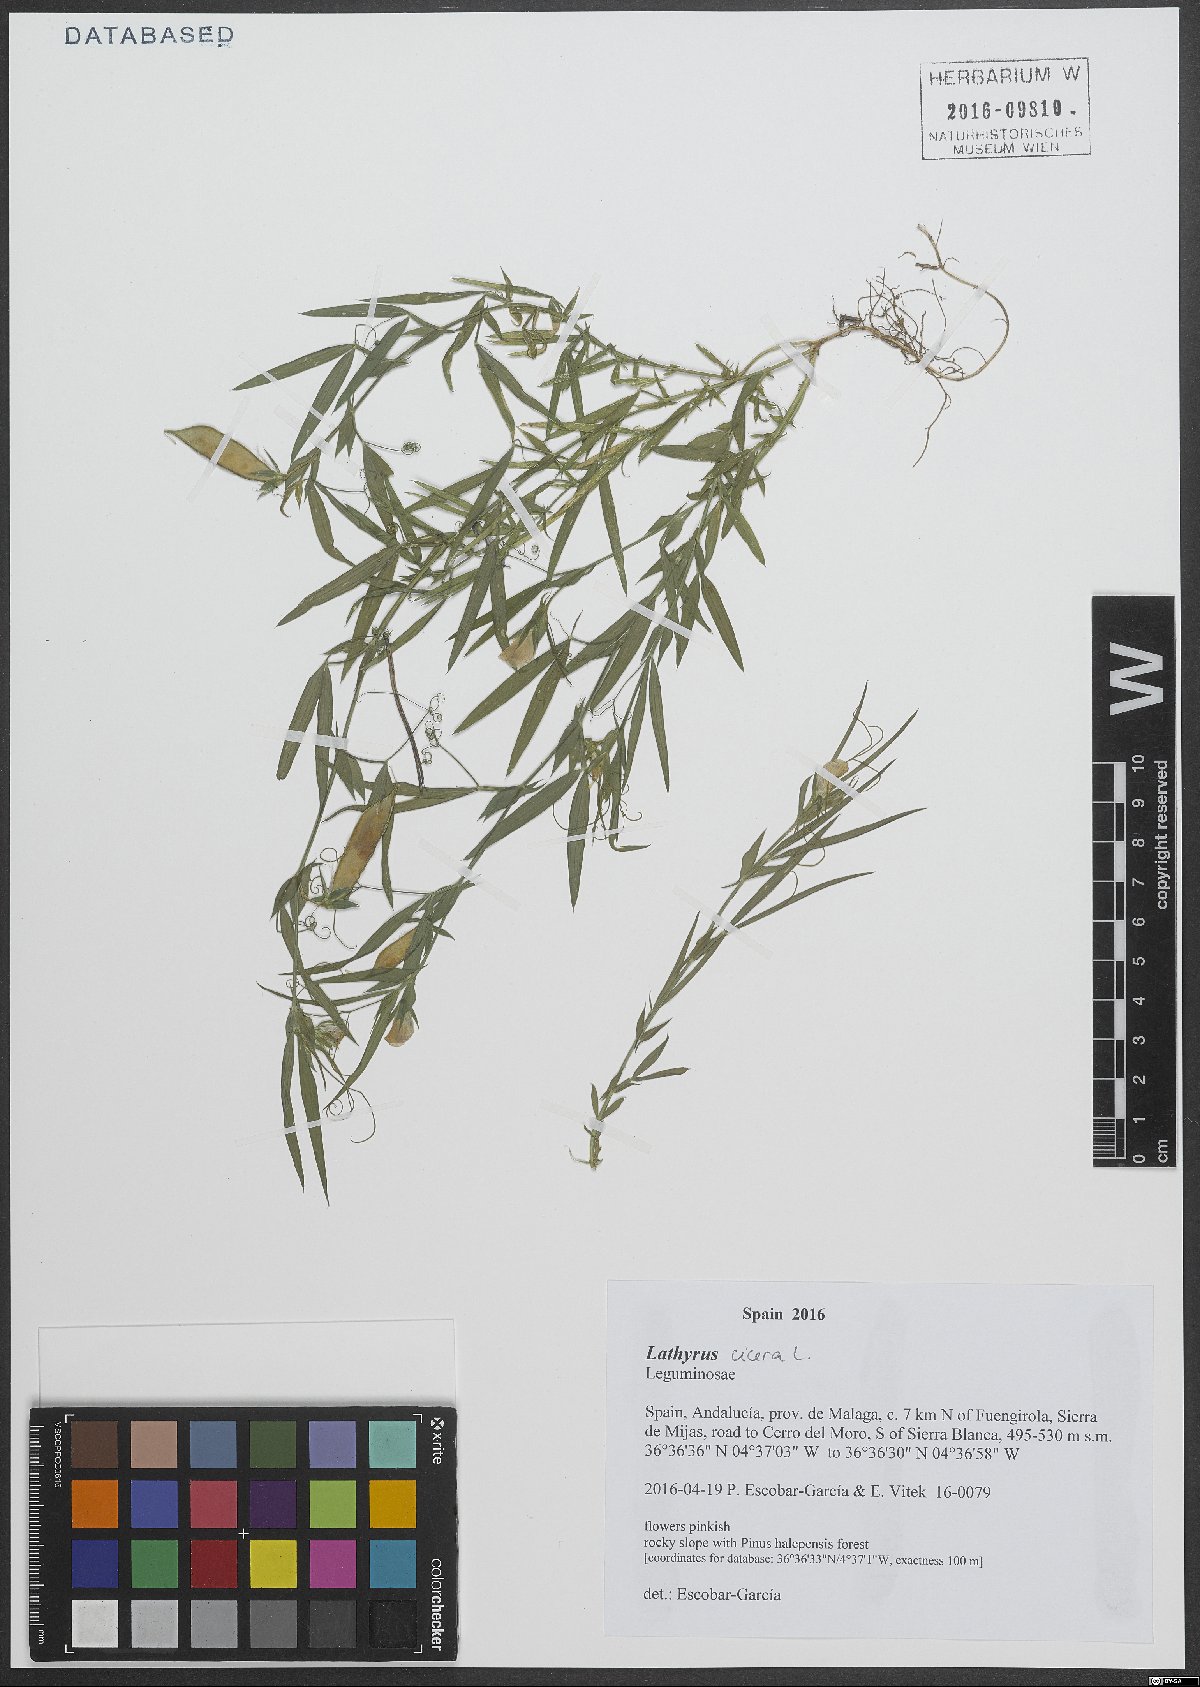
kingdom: Plantae
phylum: Tracheophyta
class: Magnoliopsida
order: Fabales
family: Fabaceae
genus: Lathyrus
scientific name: Lathyrus cicera
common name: Red vetchling
